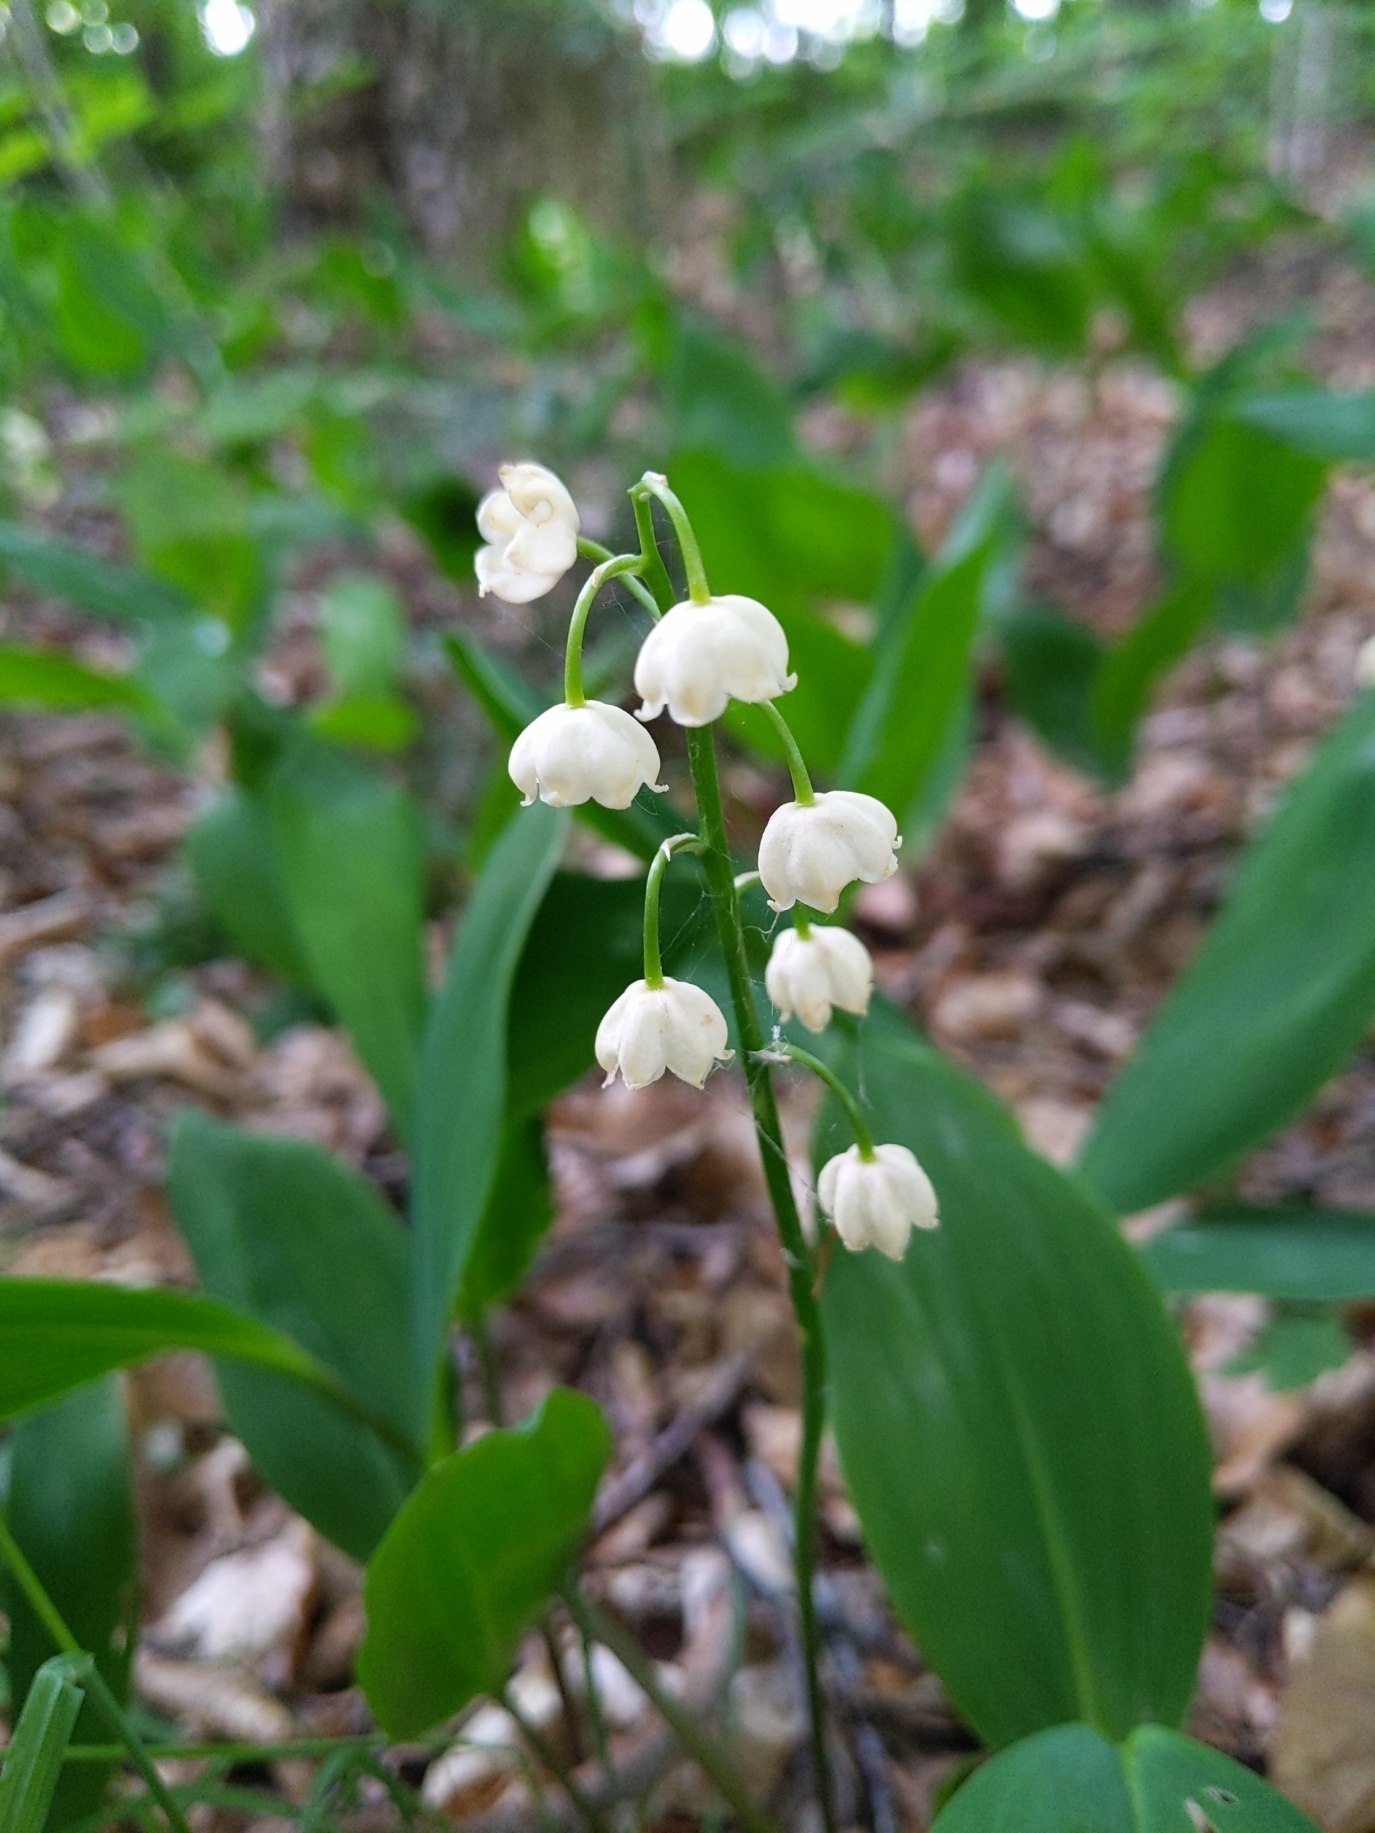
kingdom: Plantae
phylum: Tracheophyta
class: Liliopsida
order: Asparagales
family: Asparagaceae
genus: Convallaria
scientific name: Convallaria majalis
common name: Liljekonval
